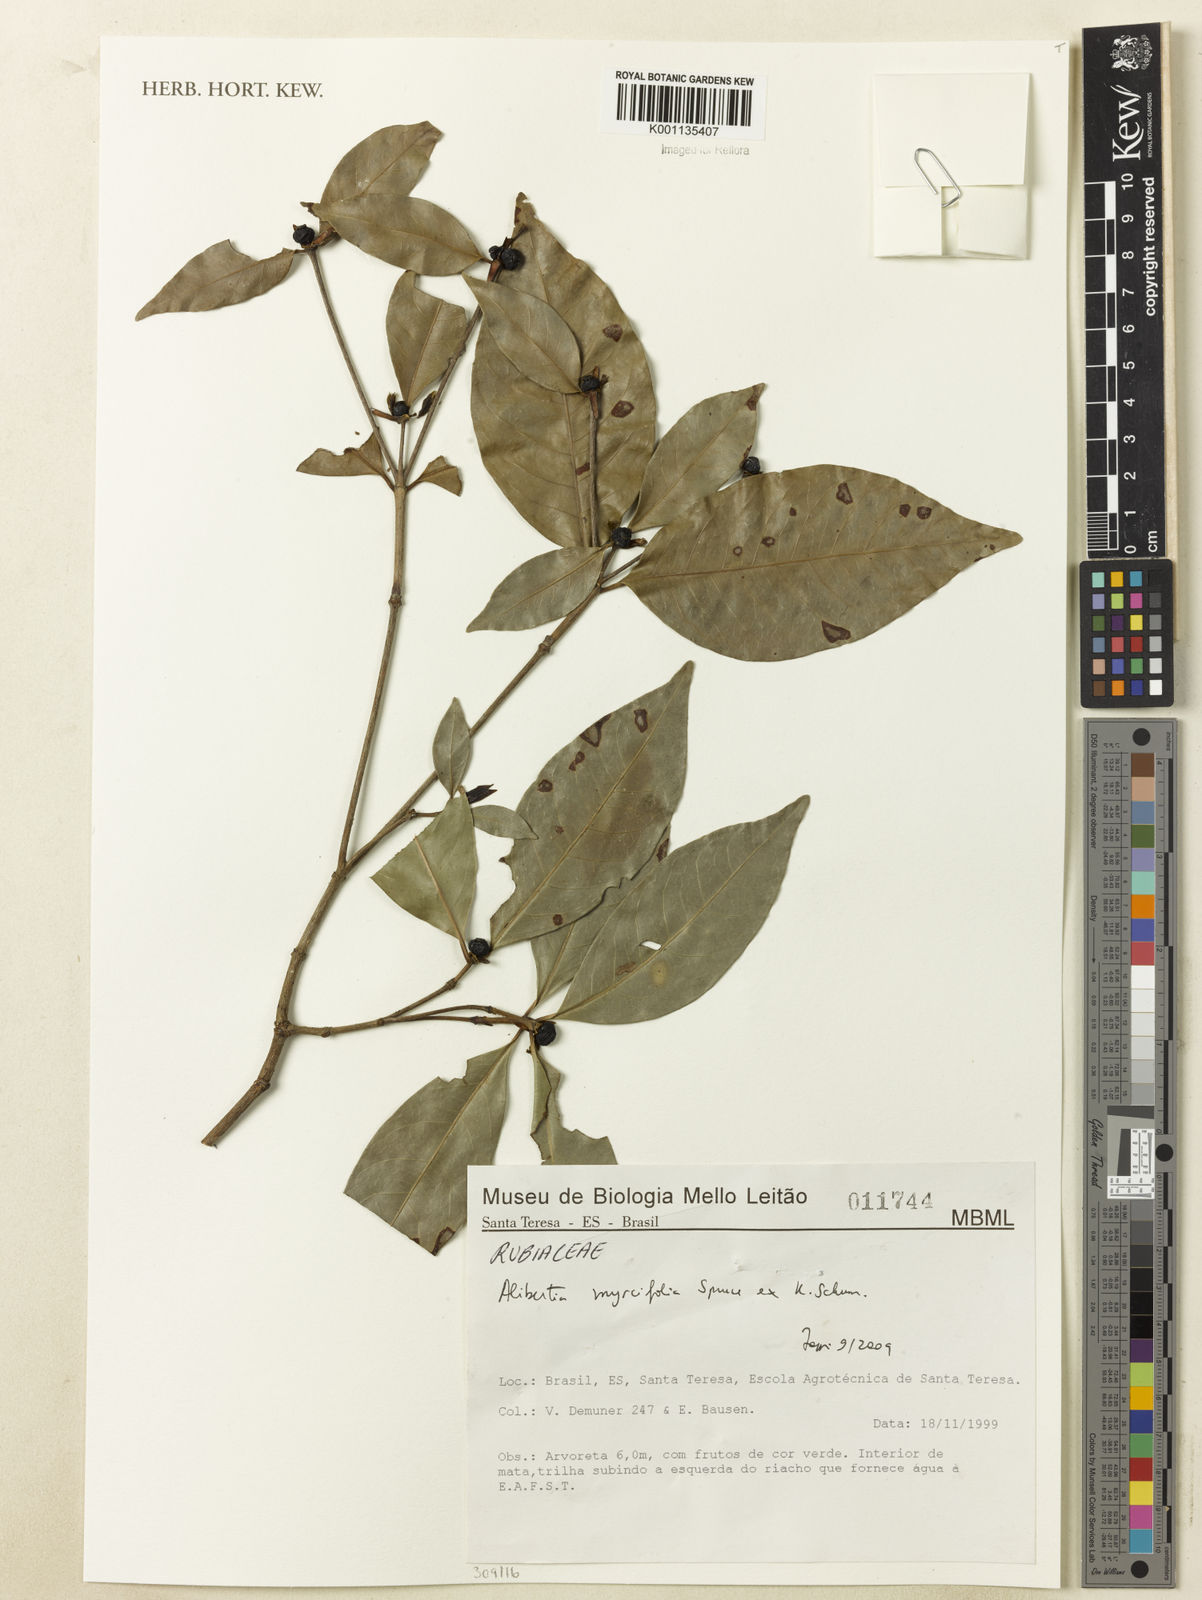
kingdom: Plantae
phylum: Tracheophyta
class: Magnoliopsida
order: Gentianales
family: Rubiaceae
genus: Cordiera
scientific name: Cordiera myrciifolia
